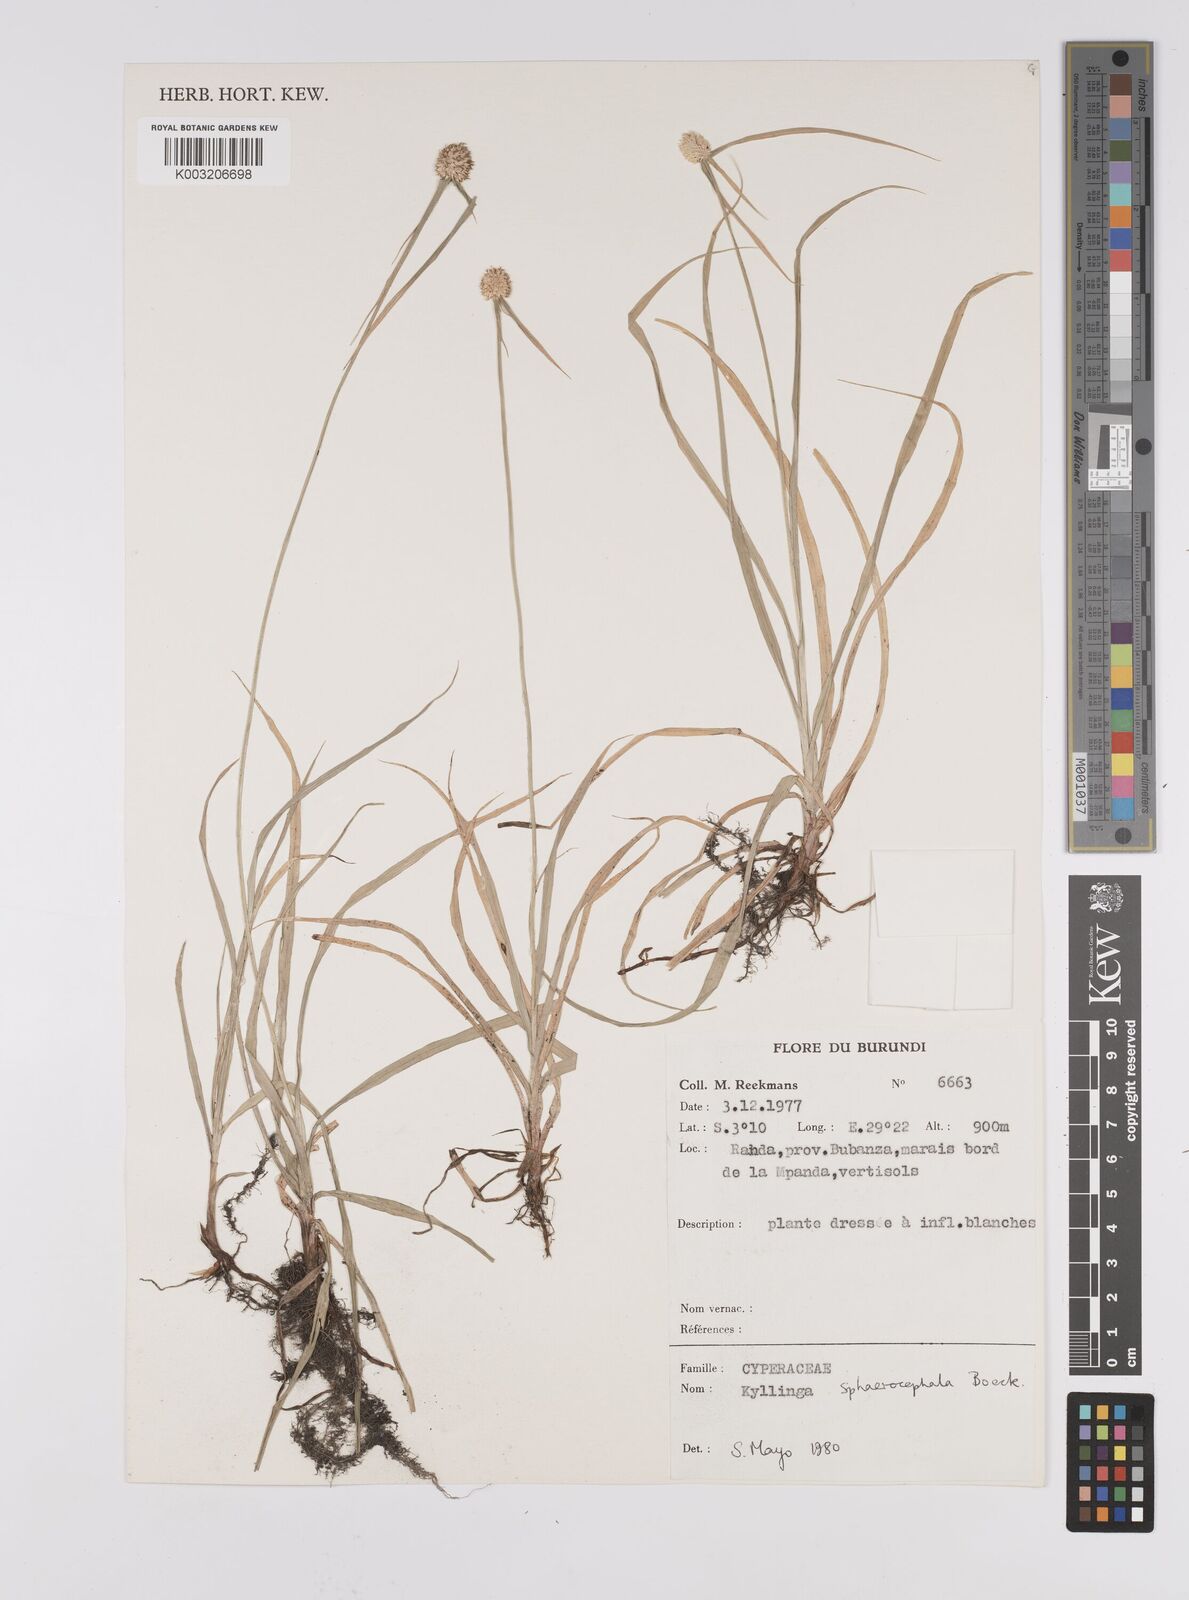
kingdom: Plantae
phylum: Tracheophyta
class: Liliopsida
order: Poales
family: Cyperaceae
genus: Cyperus
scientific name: Cyperus sphaerolepis
